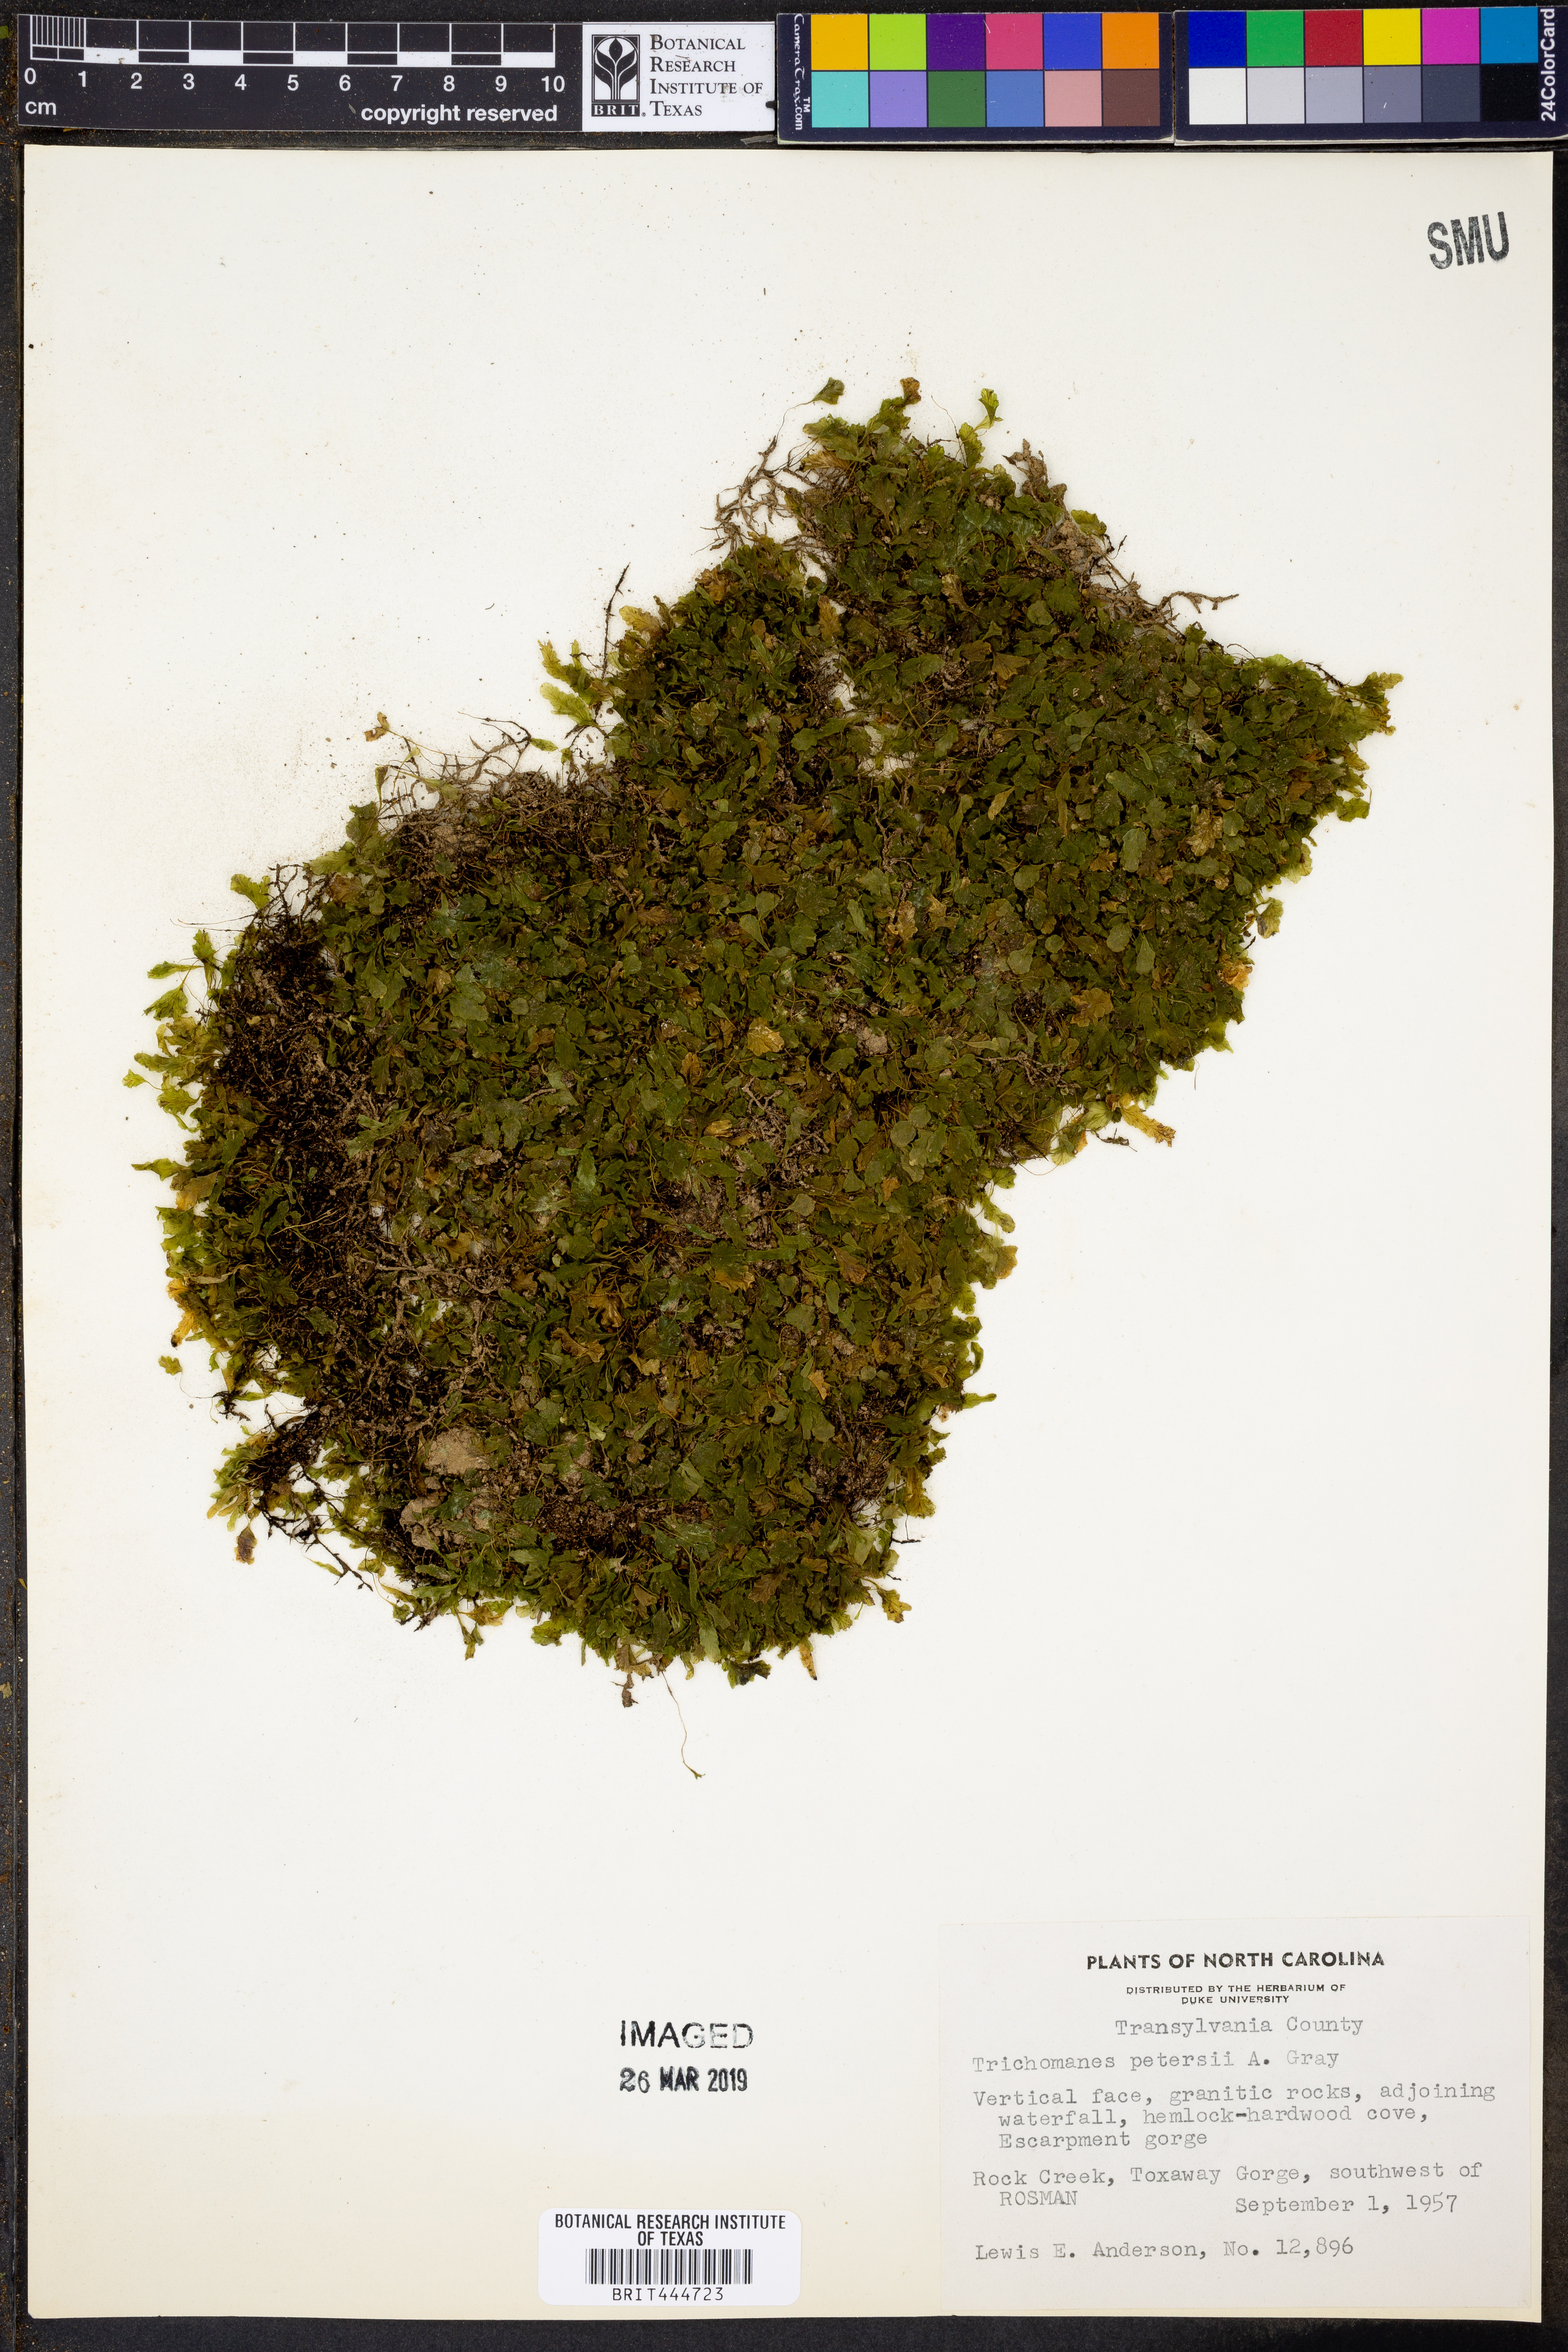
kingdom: Plantae
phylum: Tracheophyta
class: Polypodiopsida
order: Hymenophyllales
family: Hymenophyllaceae
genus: Didymoglossum
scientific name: Didymoglossum petersii
